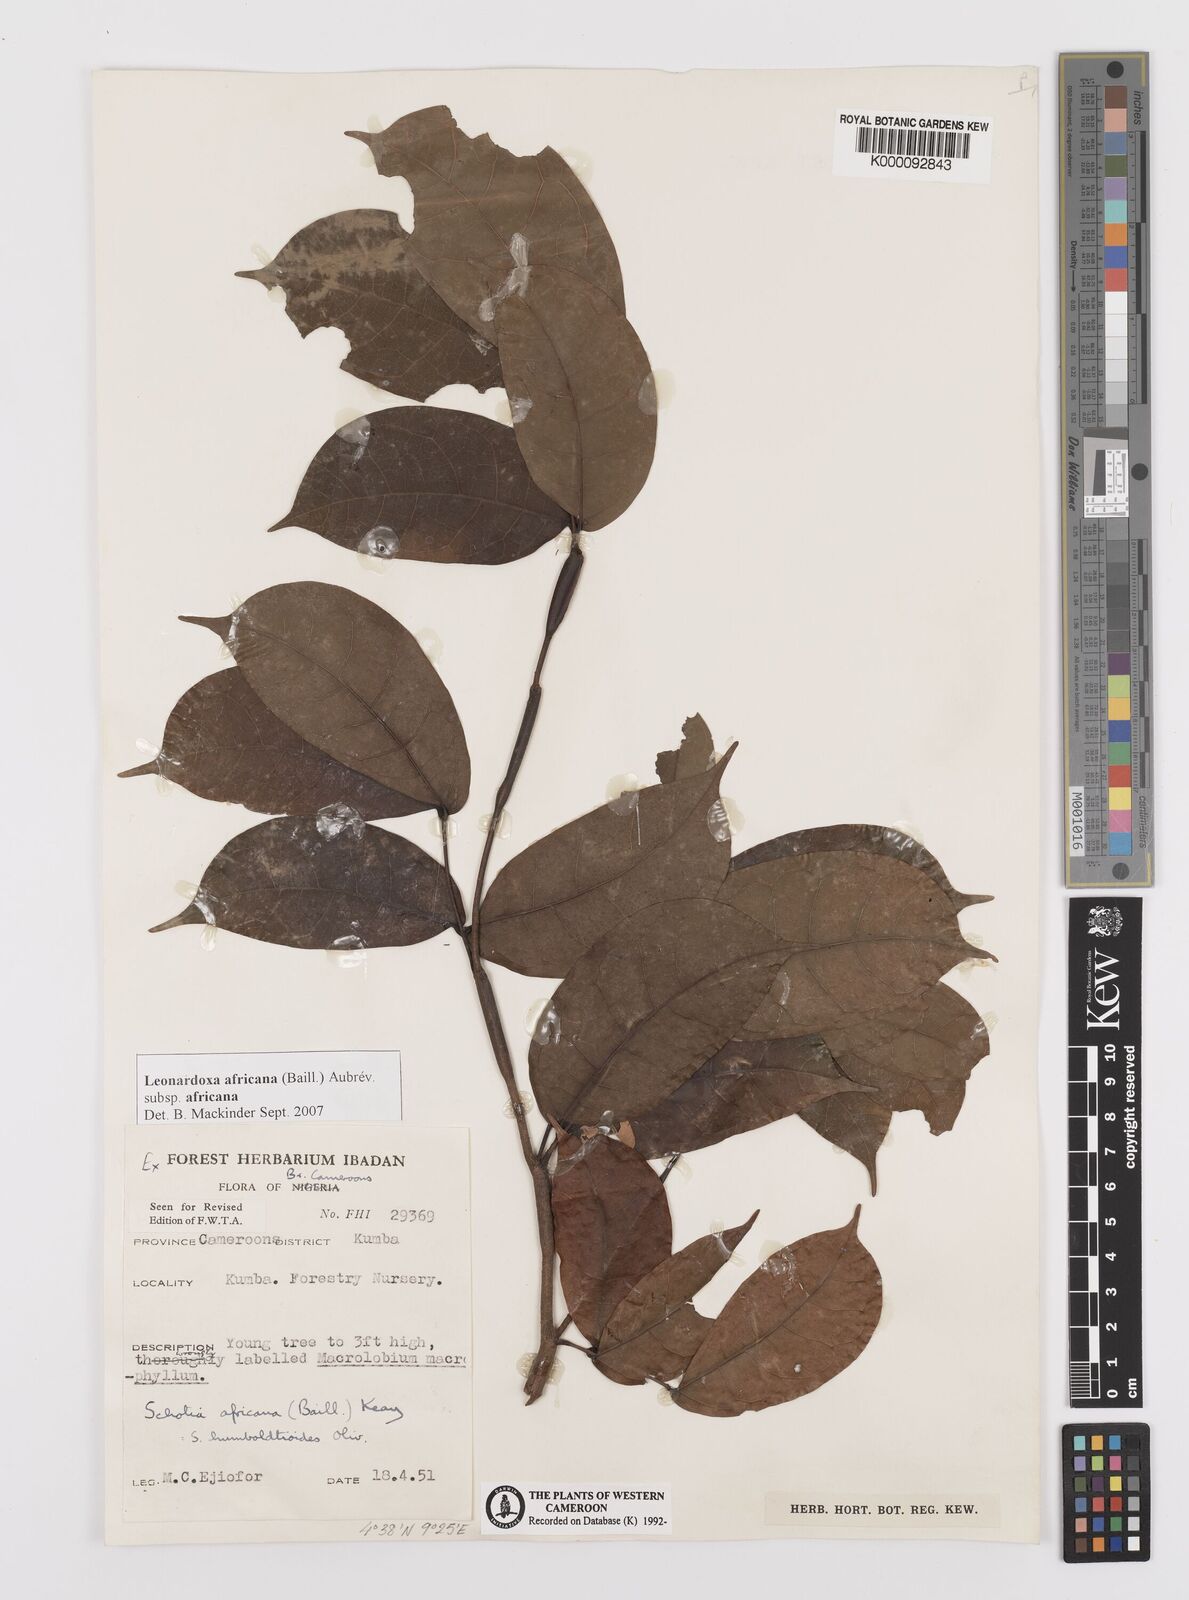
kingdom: Plantae
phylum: Tracheophyta
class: Magnoliopsida
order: Fabales
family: Fabaceae
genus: Schotia
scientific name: Schotia
